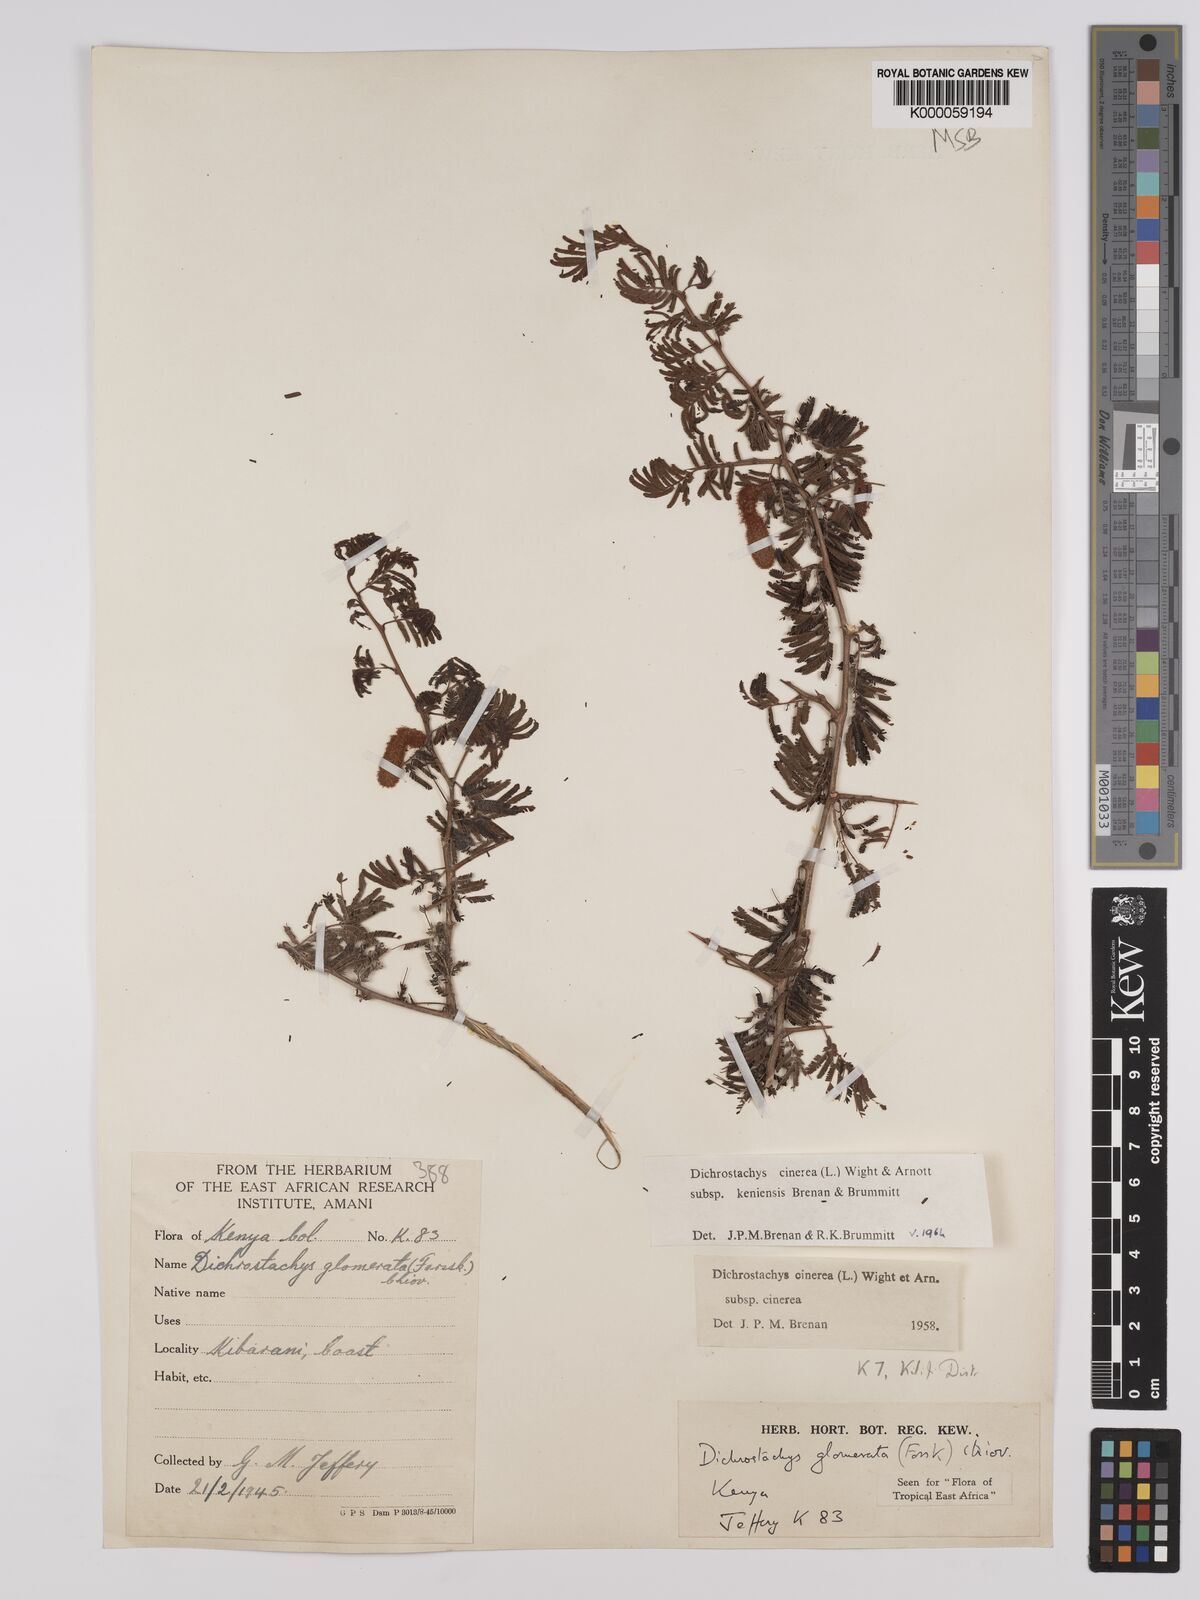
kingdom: Plantae
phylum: Tracheophyta
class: Magnoliopsida
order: Fabales
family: Fabaceae
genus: Dichrostachys
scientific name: Dichrostachys cinerea
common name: Sicklebush
